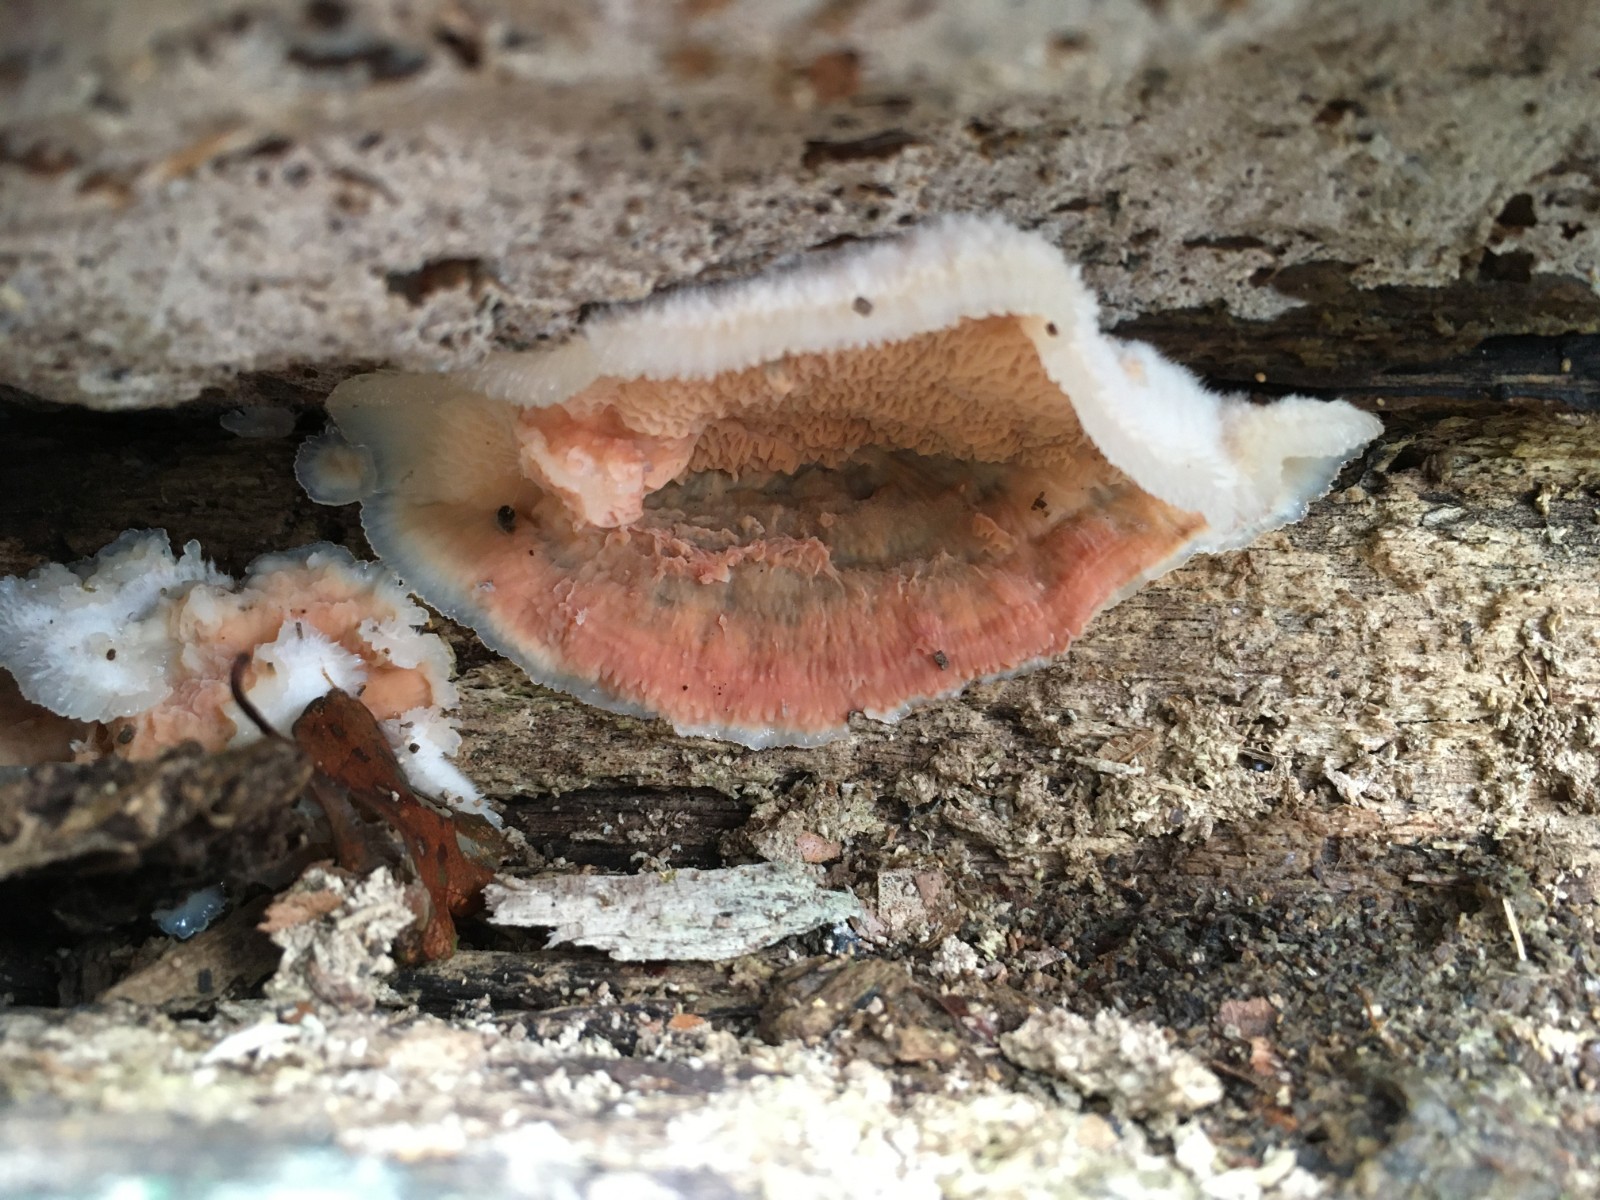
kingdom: Fungi
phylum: Basidiomycota
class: Agaricomycetes
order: Polyporales
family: Meruliaceae
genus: Phlebia
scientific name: Phlebia tremellosa
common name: bævrende åresvamp
